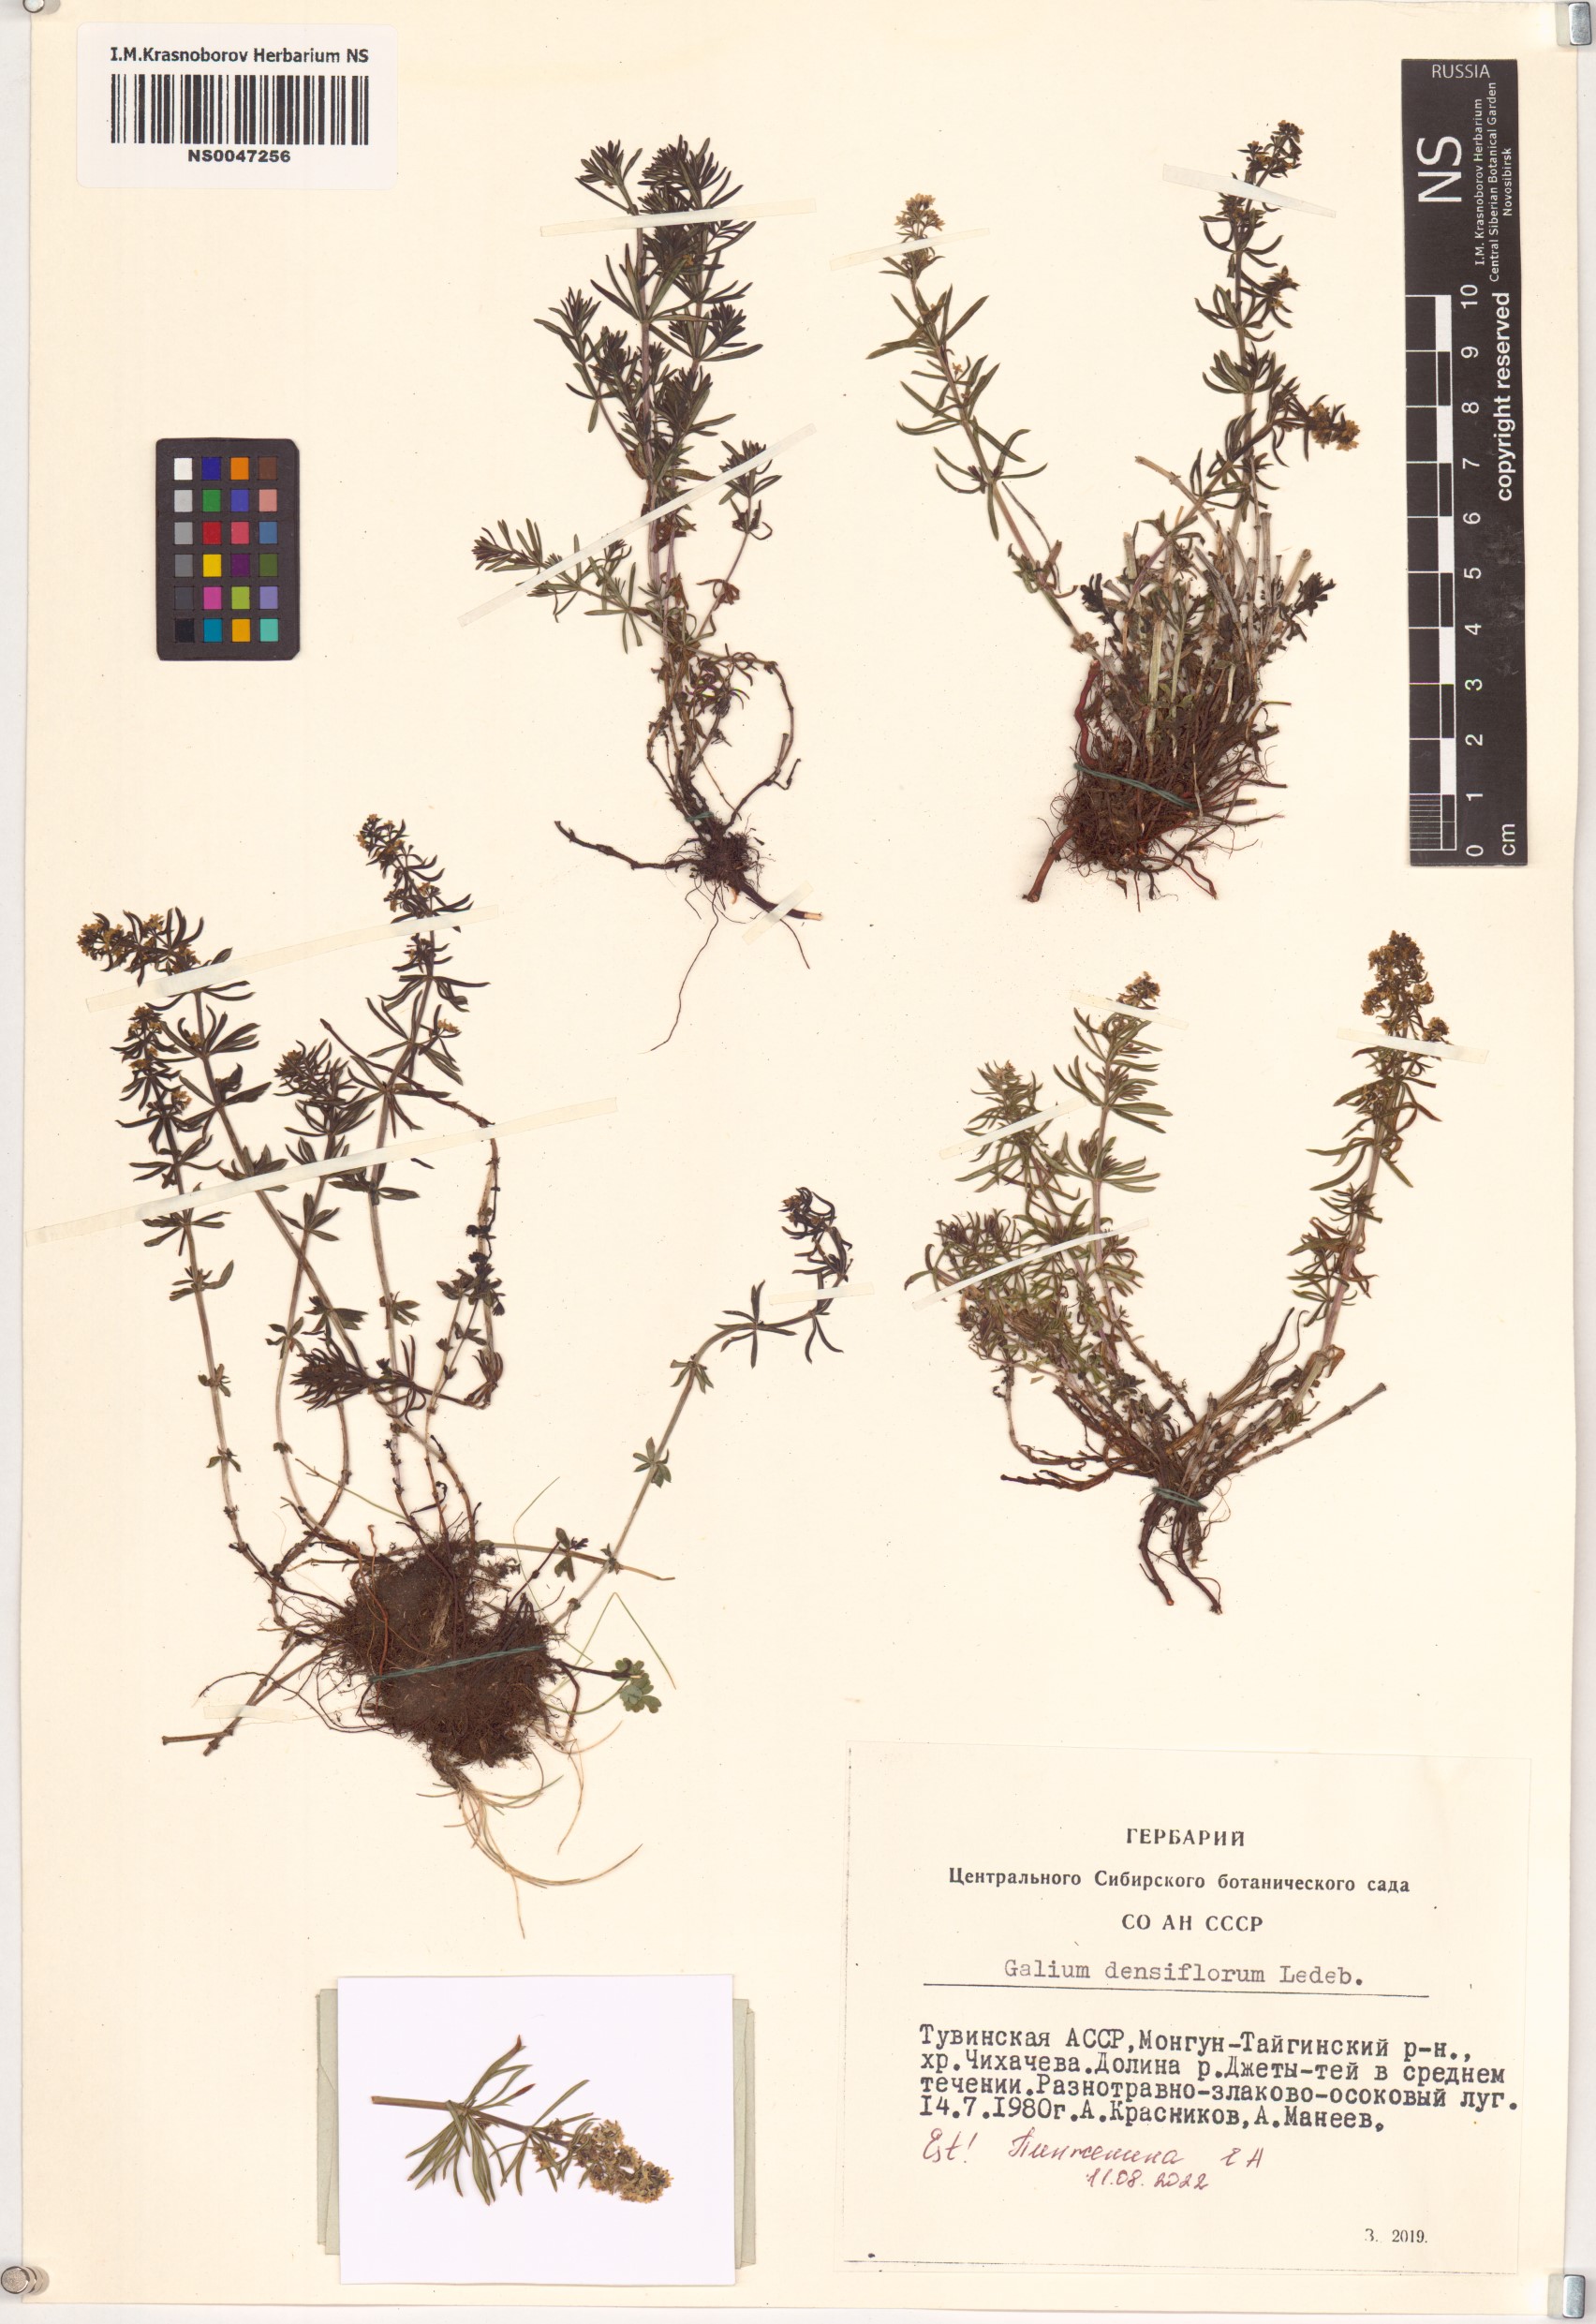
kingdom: Plantae
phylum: Tracheophyta
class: Magnoliopsida
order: Gentianales
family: Rubiaceae
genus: Galium
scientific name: Galium densiflorum
